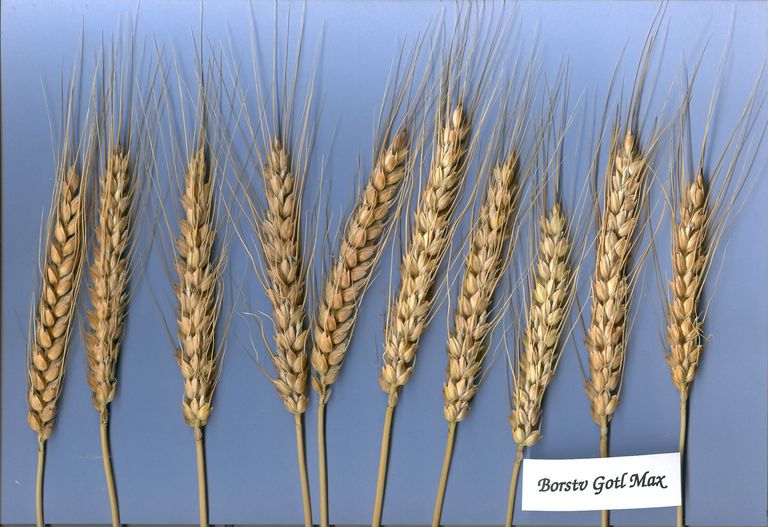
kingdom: Plantae
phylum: Tracheophyta
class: Liliopsida
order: Poales
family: Poaceae
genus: Triticum
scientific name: Triticum aestivum
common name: Common wheat
